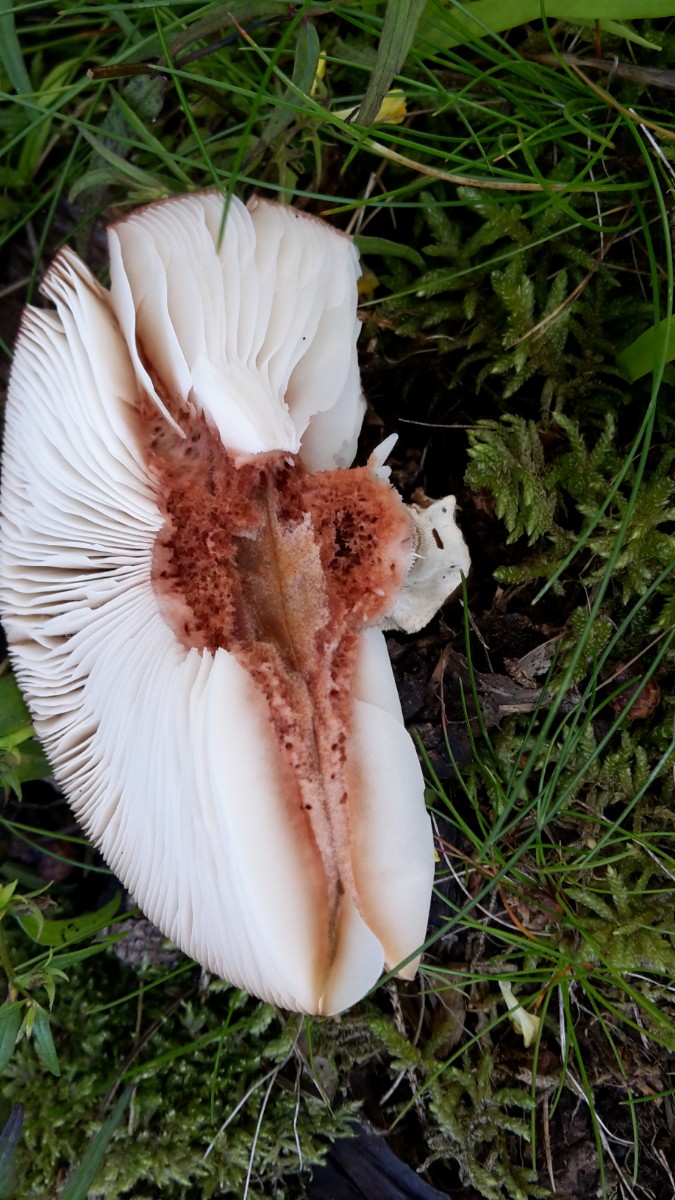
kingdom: Fungi
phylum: Basidiomycota
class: Agaricomycetes
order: Agaricales
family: Amanitaceae
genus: Amanita
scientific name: Amanita rubescens
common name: rødmende fluesvamp
